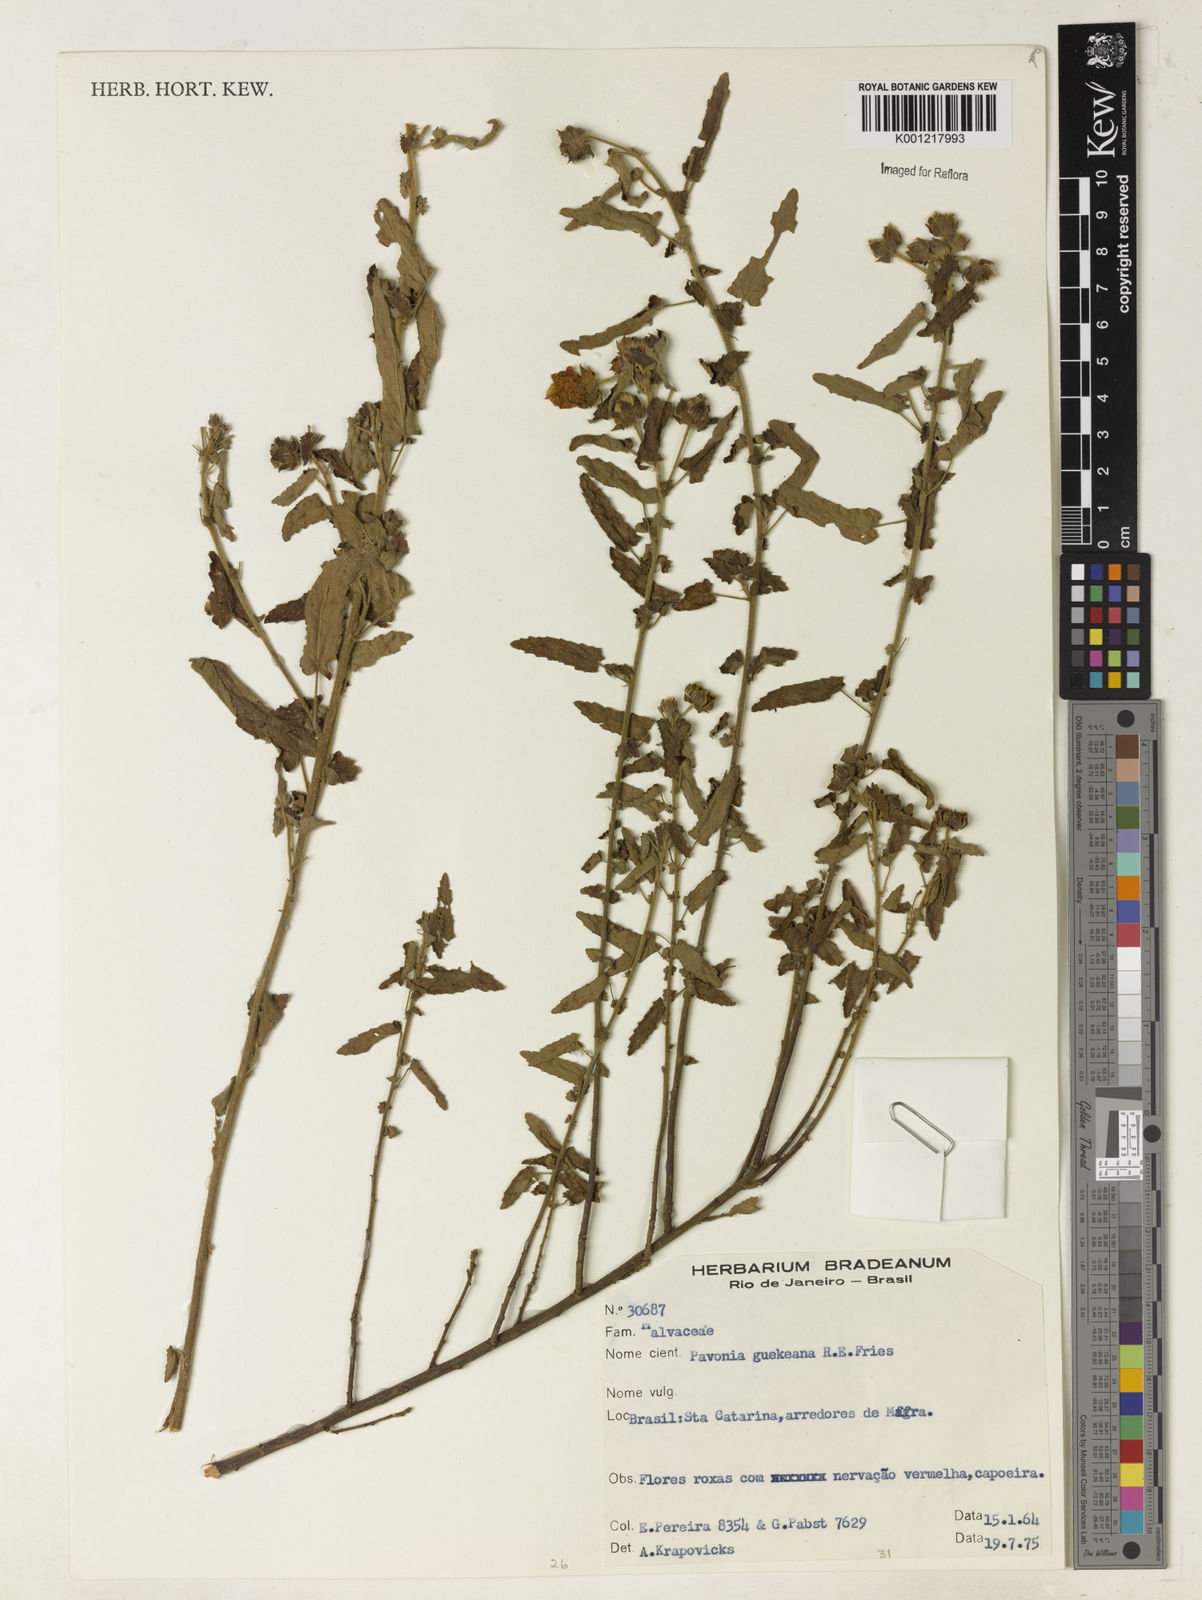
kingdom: Plantae
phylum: Tracheophyta
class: Magnoliopsida
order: Malvales
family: Malvaceae
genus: Pavonia
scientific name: Pavonia guerkeana
